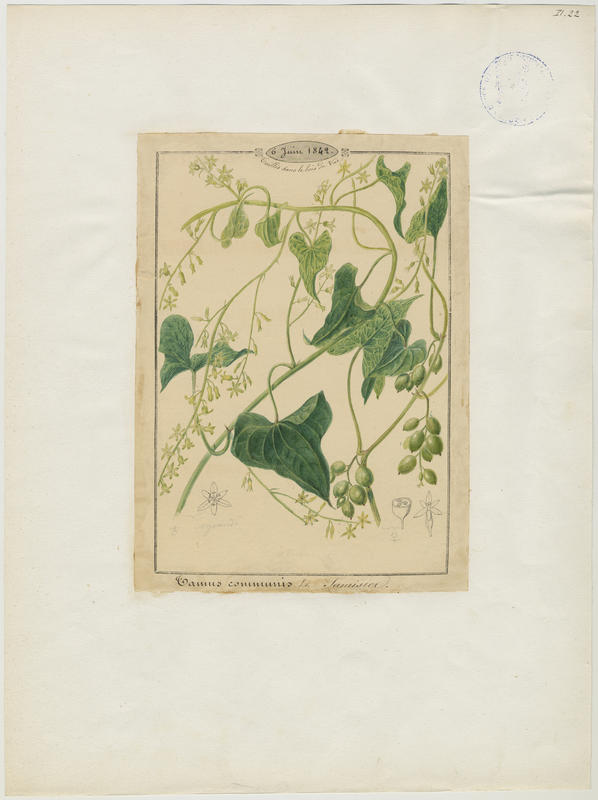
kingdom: Plantae
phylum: Tracheophyta
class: Liliopsida
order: Dioscoreales
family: Dioscoreaceae
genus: Dioscorea
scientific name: Dioscorea communis
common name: Black-bindweed
